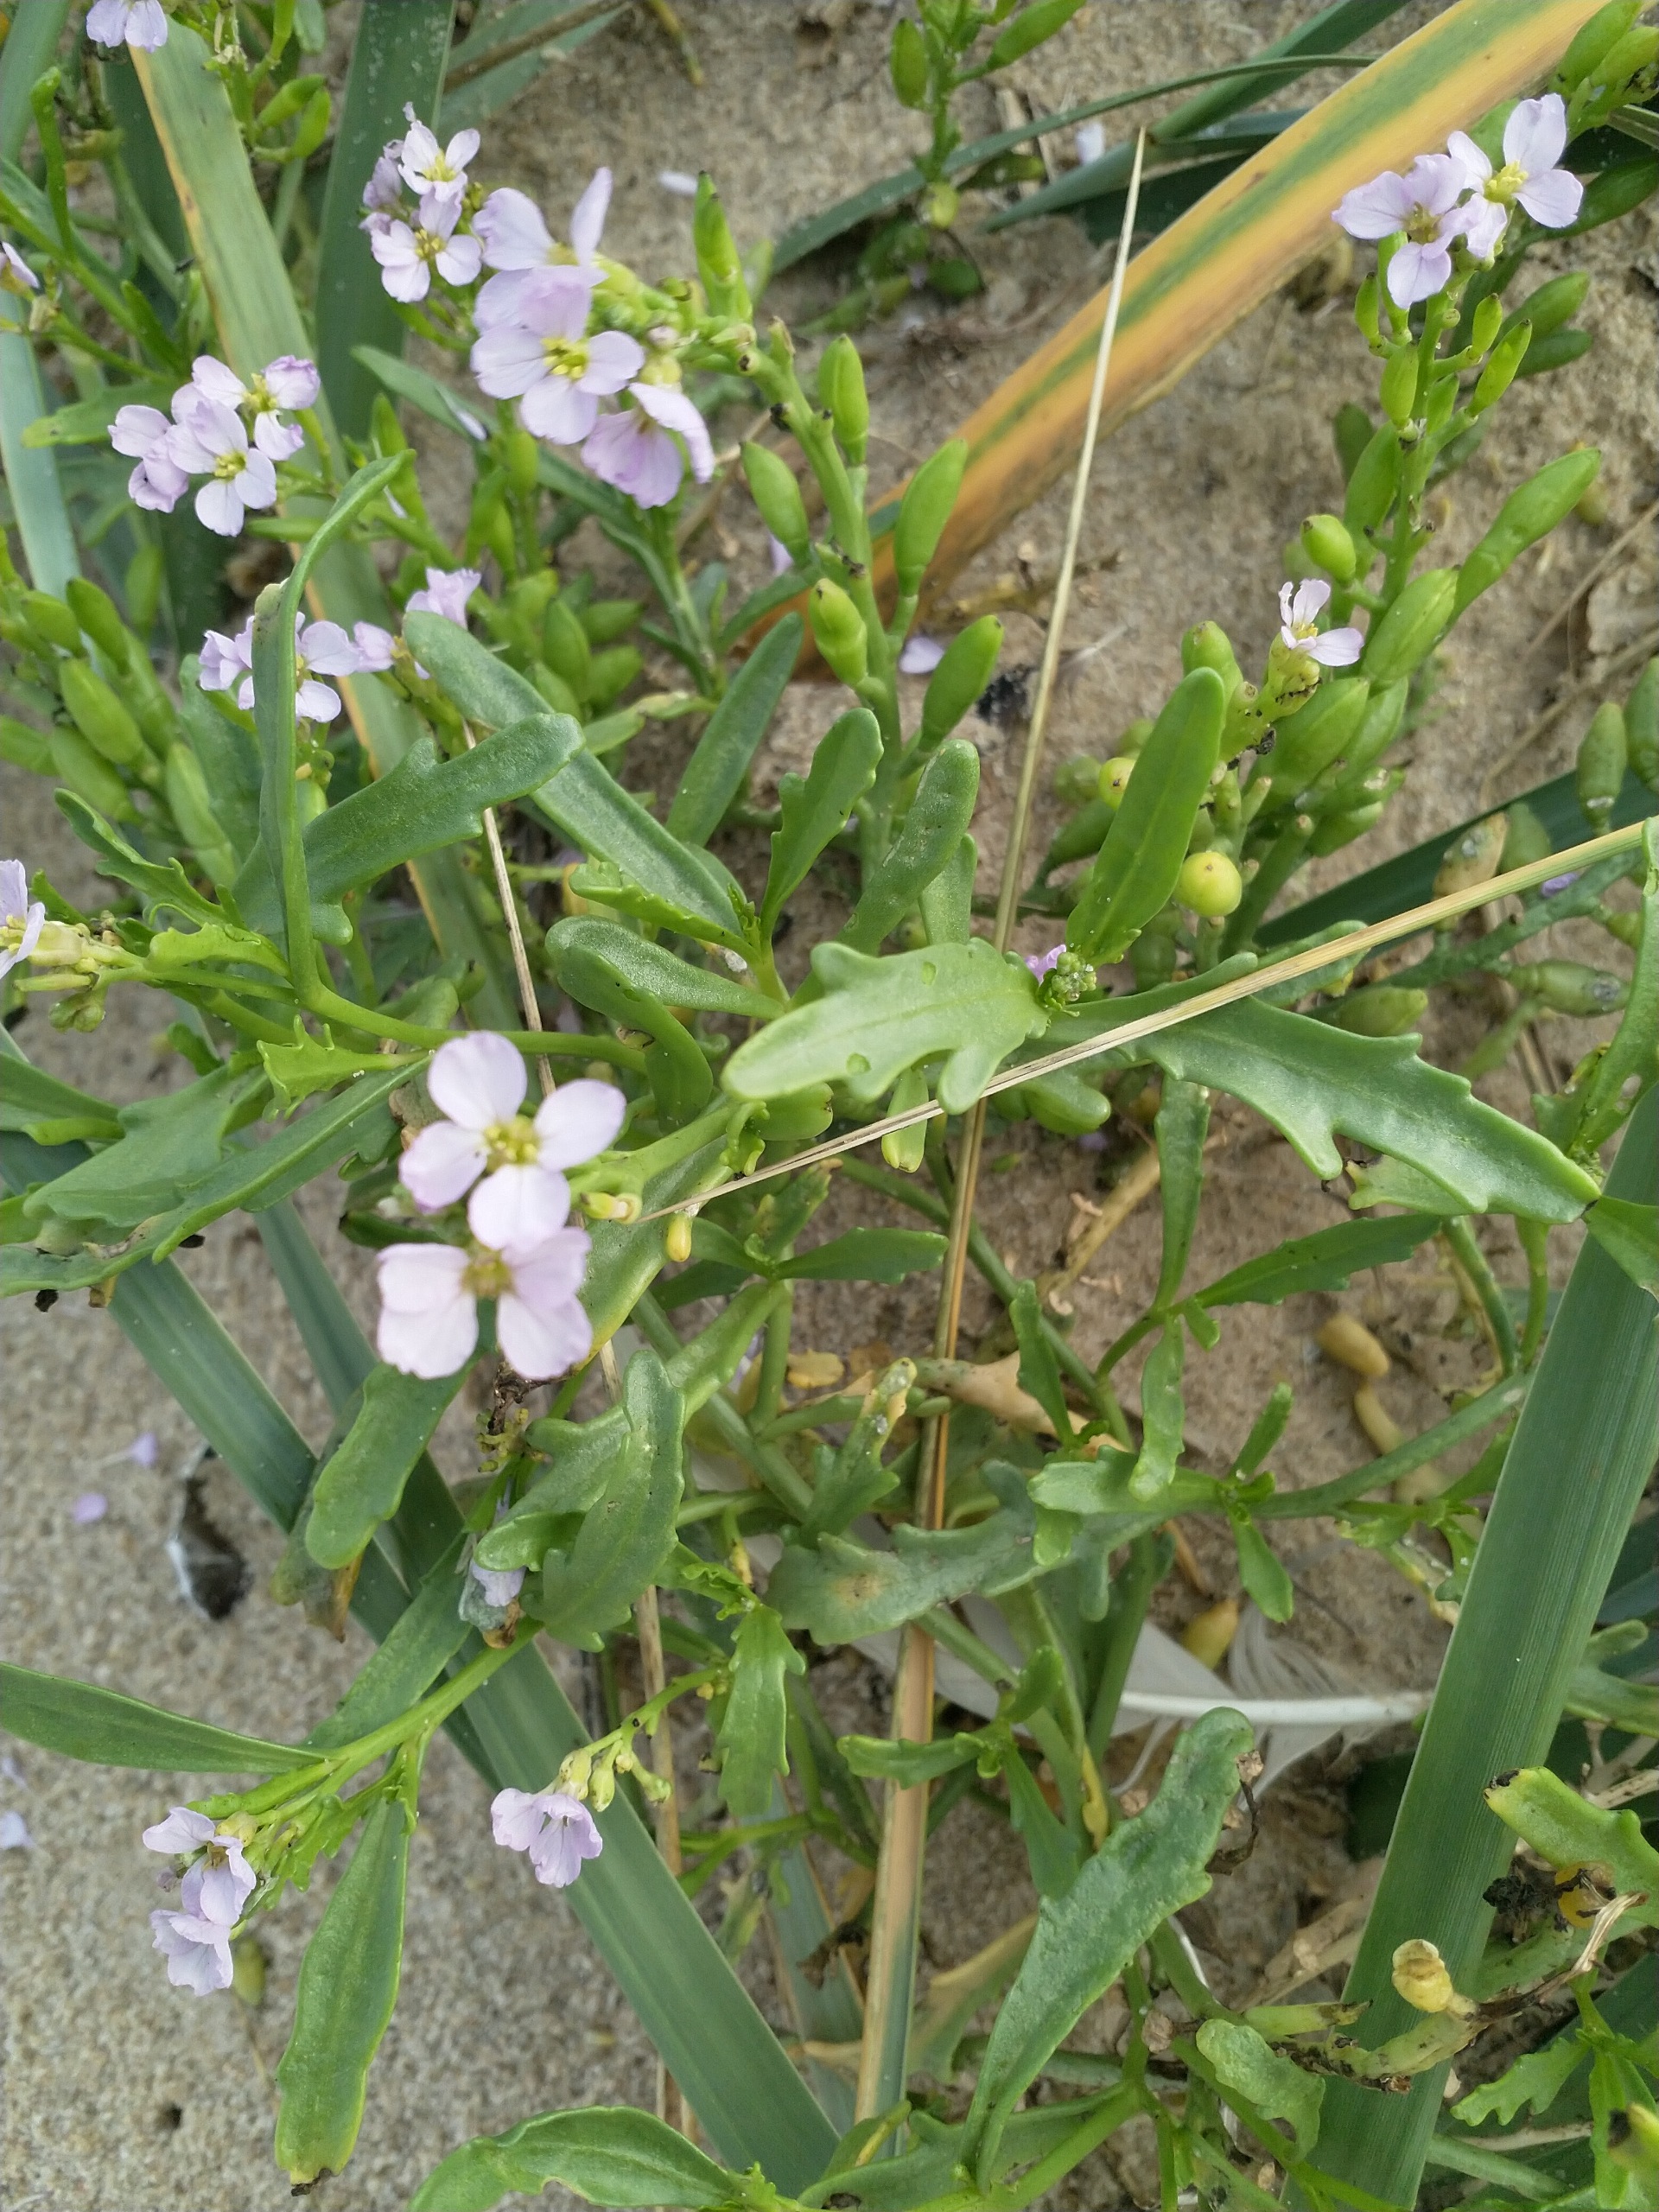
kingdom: Plantae
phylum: Tracheophyta
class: Magnoliopsida
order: Brassicales
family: Brassicaceae
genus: Cakile
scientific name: Cakile maritima
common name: Vesterhavs-strandsennep
